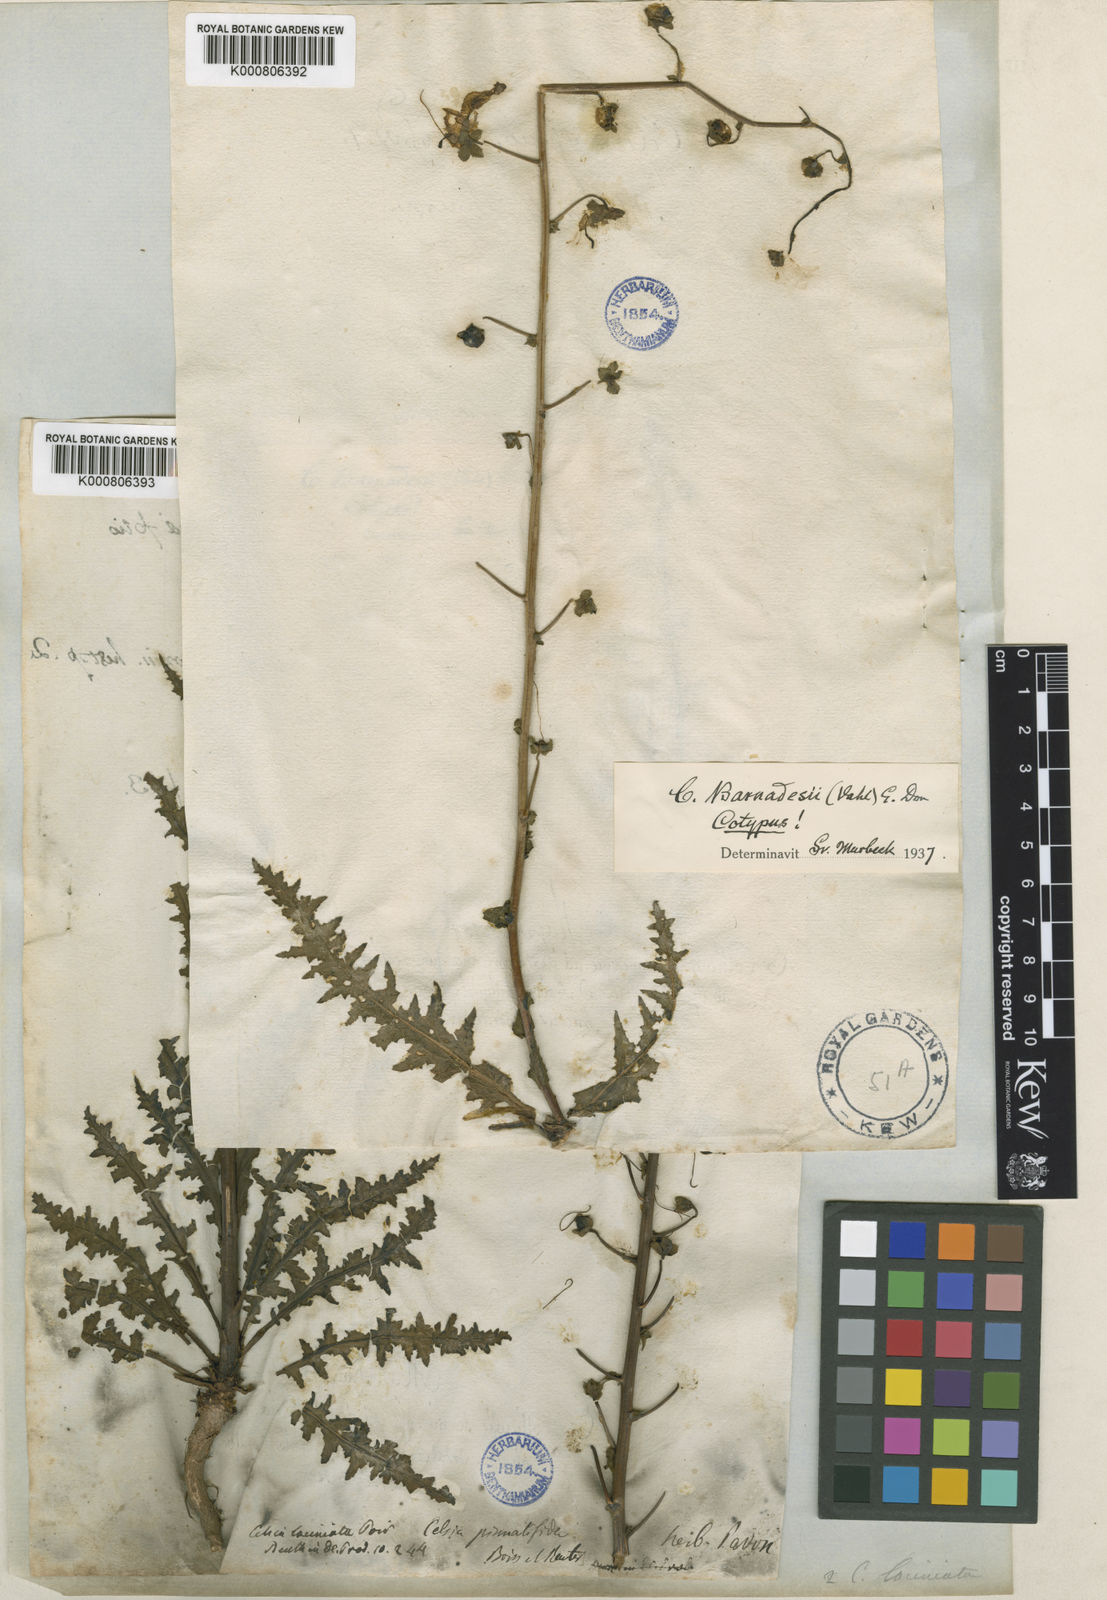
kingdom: Animalia
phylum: Arthropoda
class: Insecta
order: Lepidoptera
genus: Celsia
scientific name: Celsia
